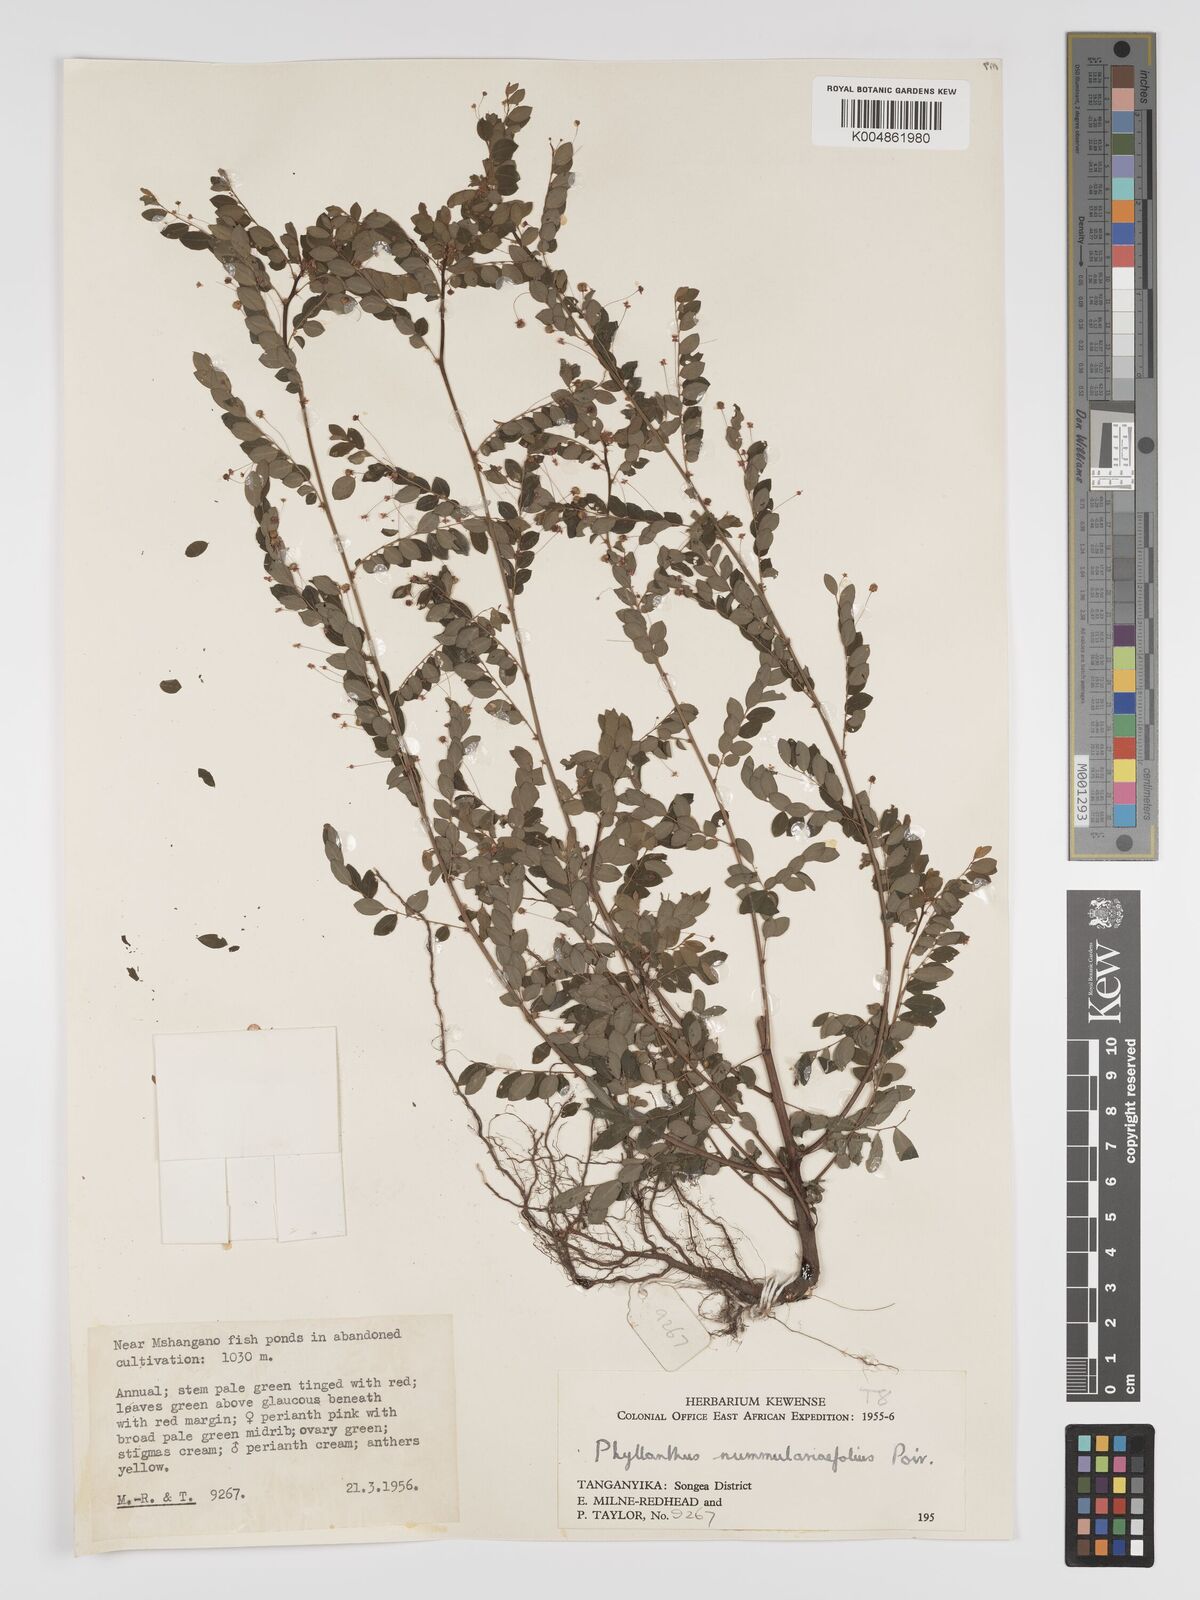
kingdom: Plantae
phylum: Tracheophyta
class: Magnoliopsida
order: Malpighiales
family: Phyllanthaceae
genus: Phyllanthus
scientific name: Phyllanthus nummulariifolius
